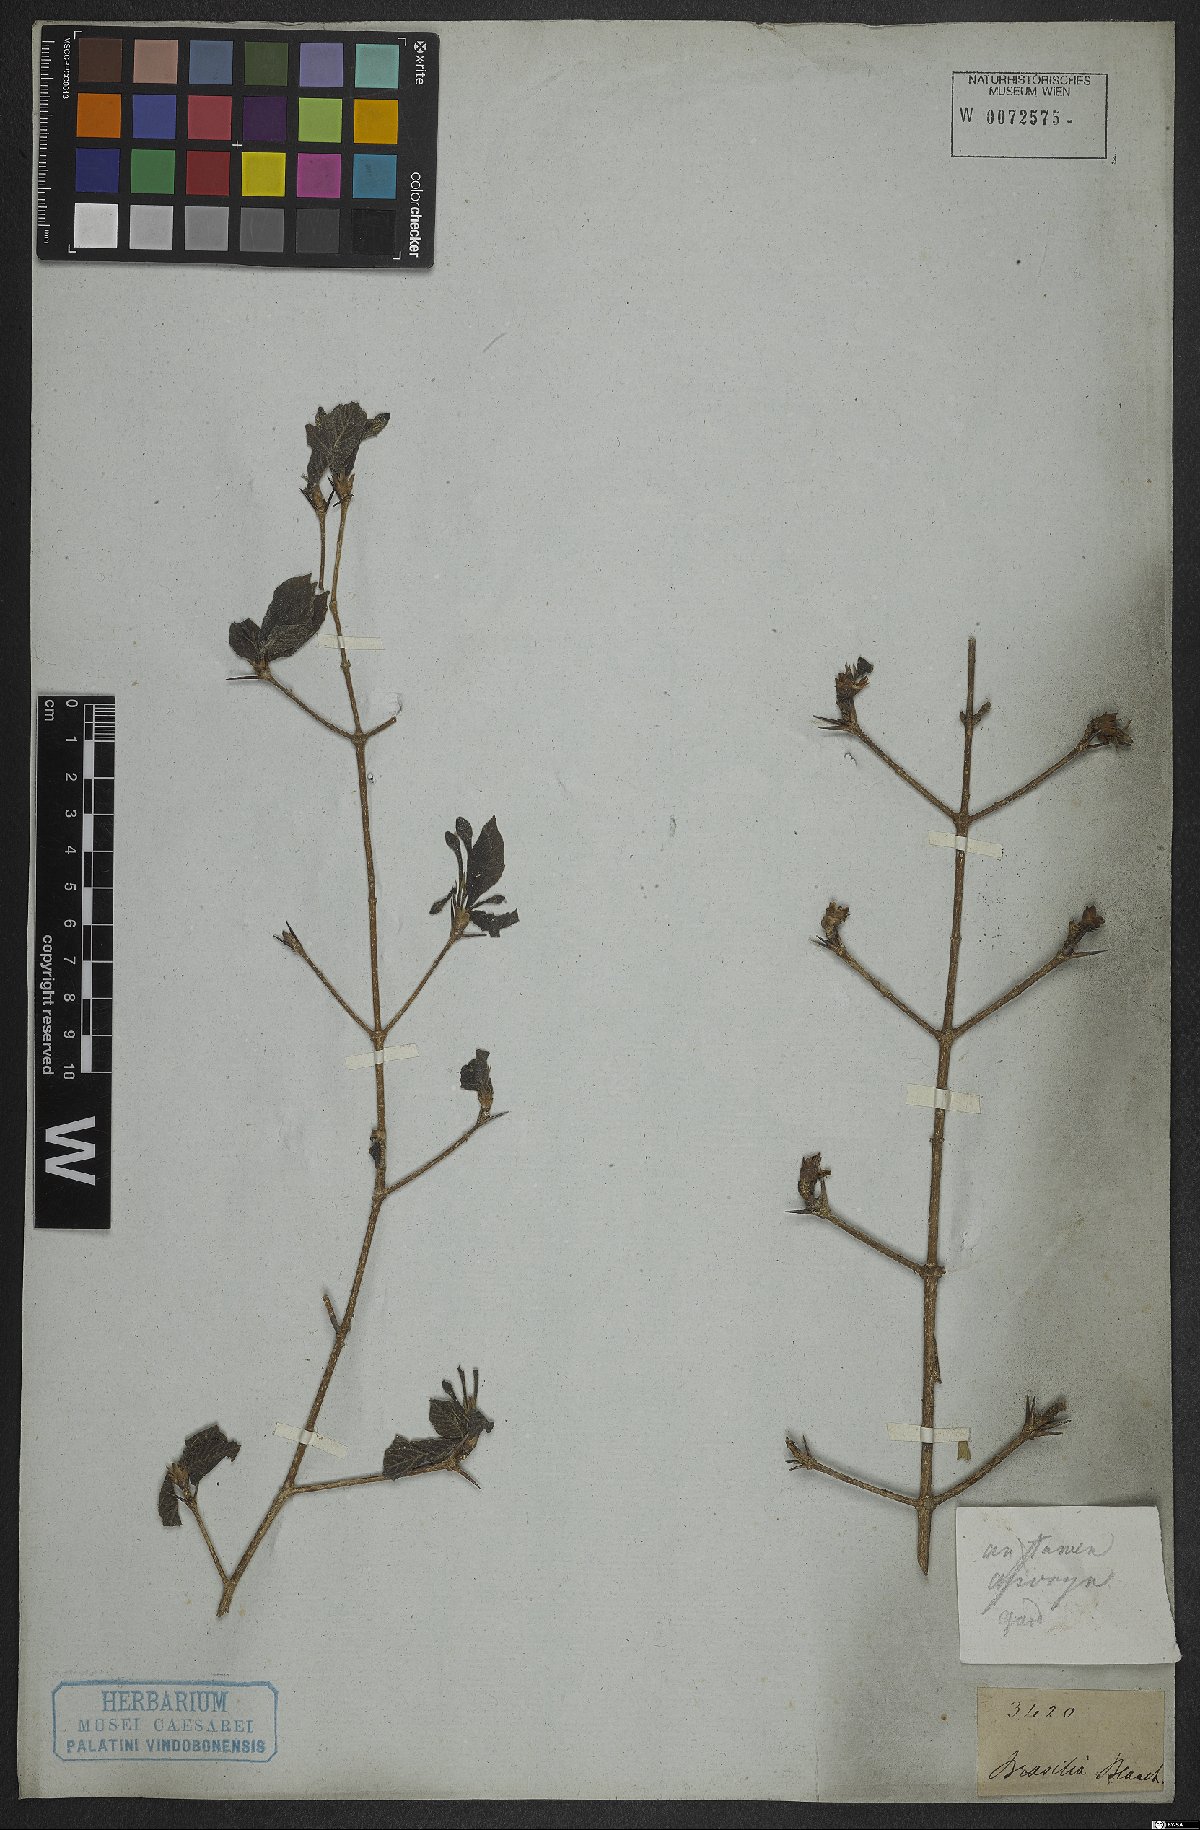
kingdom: Plantae
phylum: Tracheophyta
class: Magnoliopsida
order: Gentianales
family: Rubiaceae
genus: Randia
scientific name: Randia
